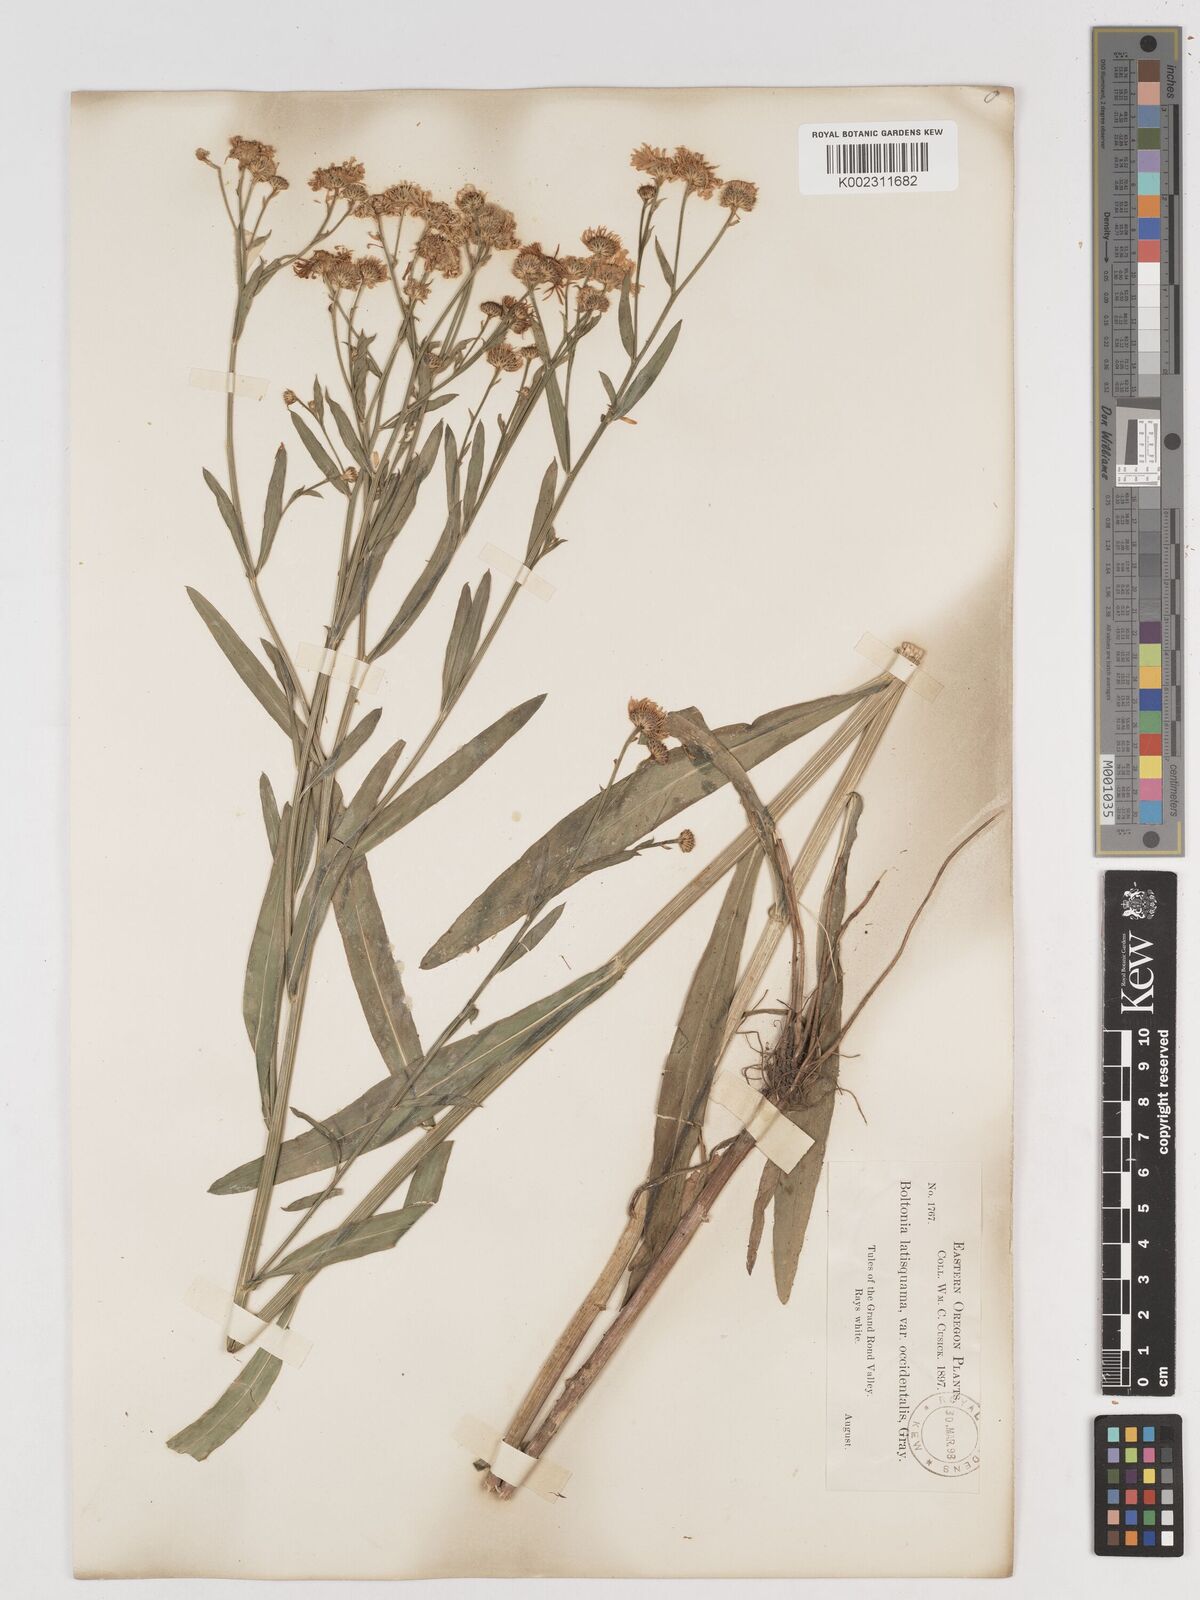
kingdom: Plantae
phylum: Tracheophyta
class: Magnoliopsida
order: Asterales
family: Asteraceae
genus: Boltonia
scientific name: Boltonia asteroides
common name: False chamomile
